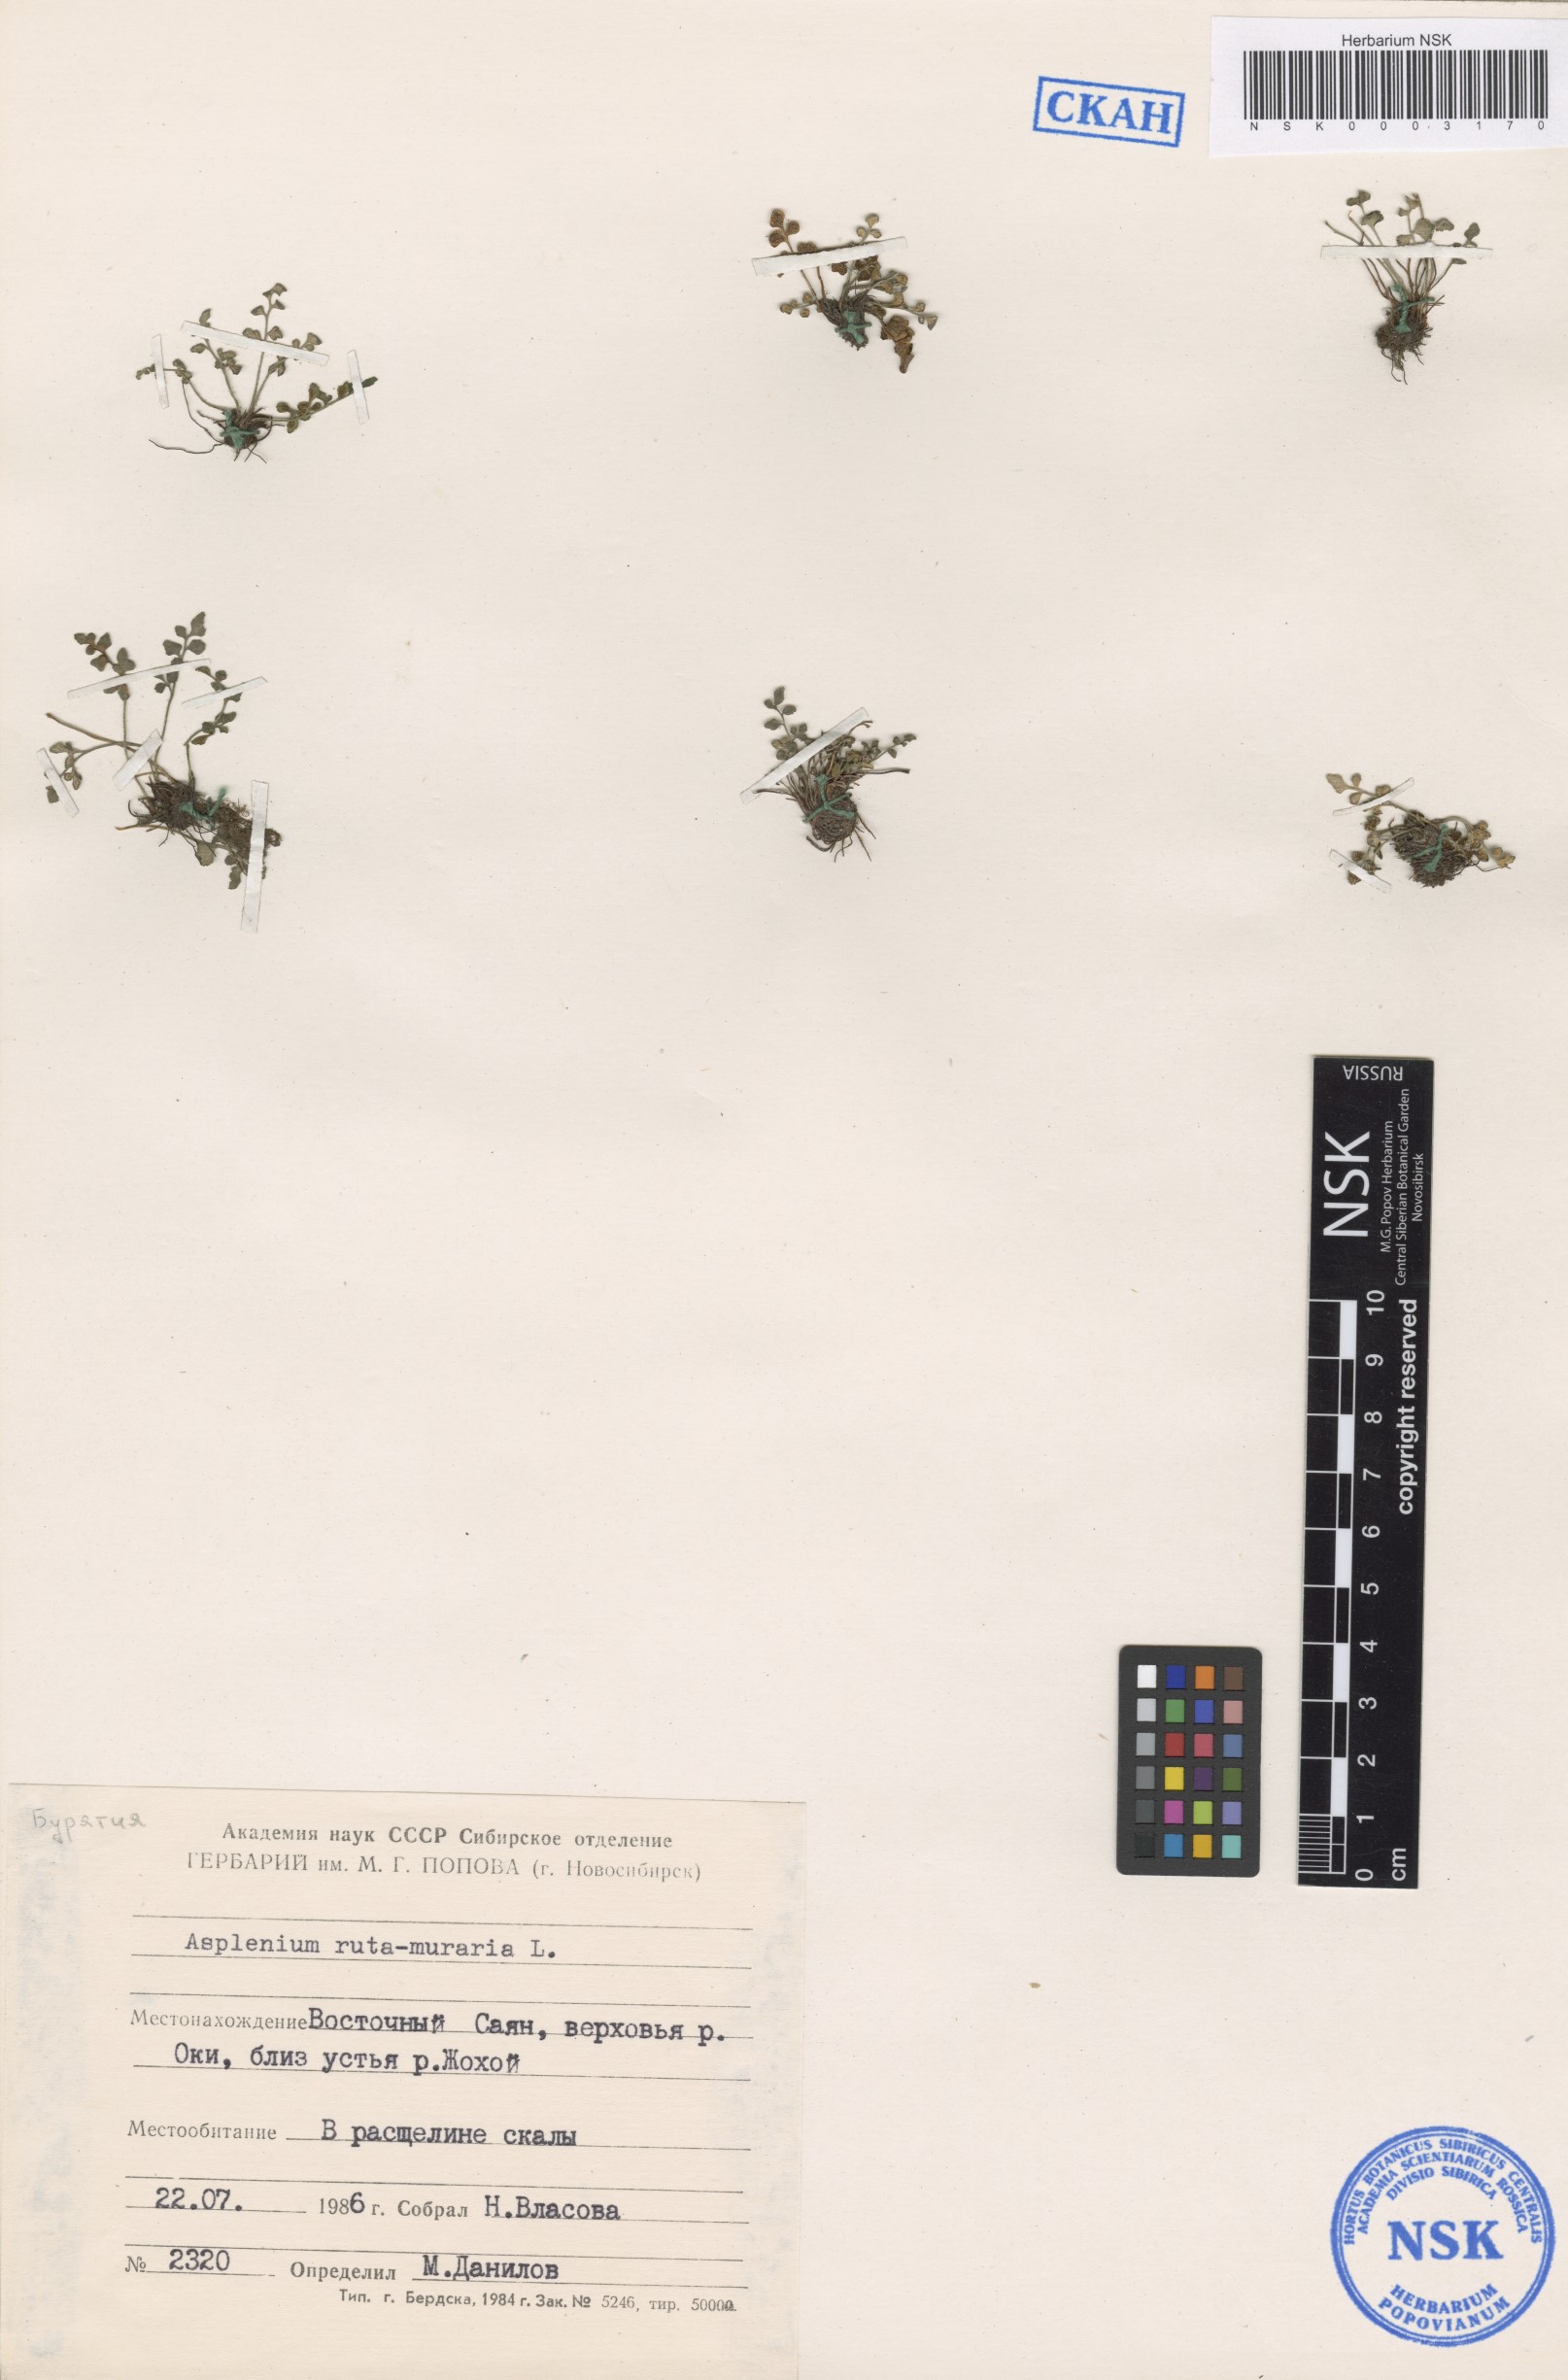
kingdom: Plantae
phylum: Tracheophyta
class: Polypodiopsida
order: Polypodiales
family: Aspleniaceae
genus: Asplenium
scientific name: Asplenium ruta-muraria
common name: Wall-rue
